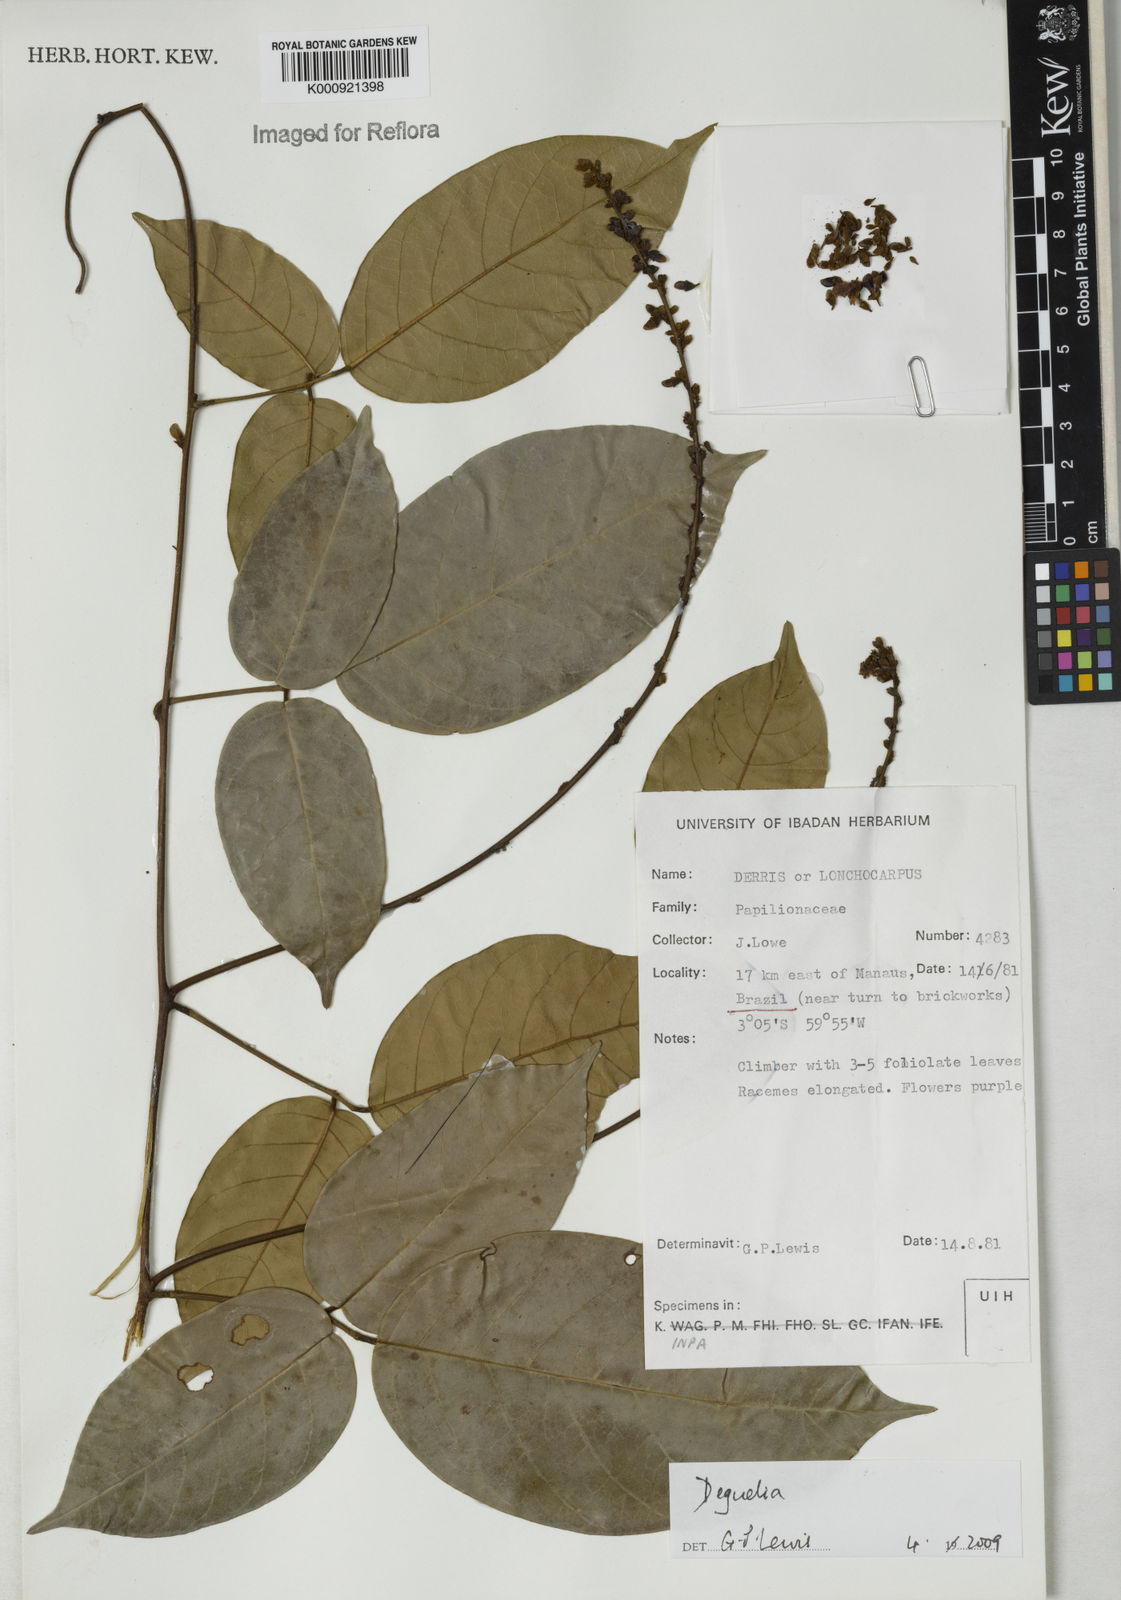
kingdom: Plantae
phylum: Tracheophyta
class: Magnoliopsida
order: Fabales
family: Fabaceae
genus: Deguelia
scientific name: Deguelia
